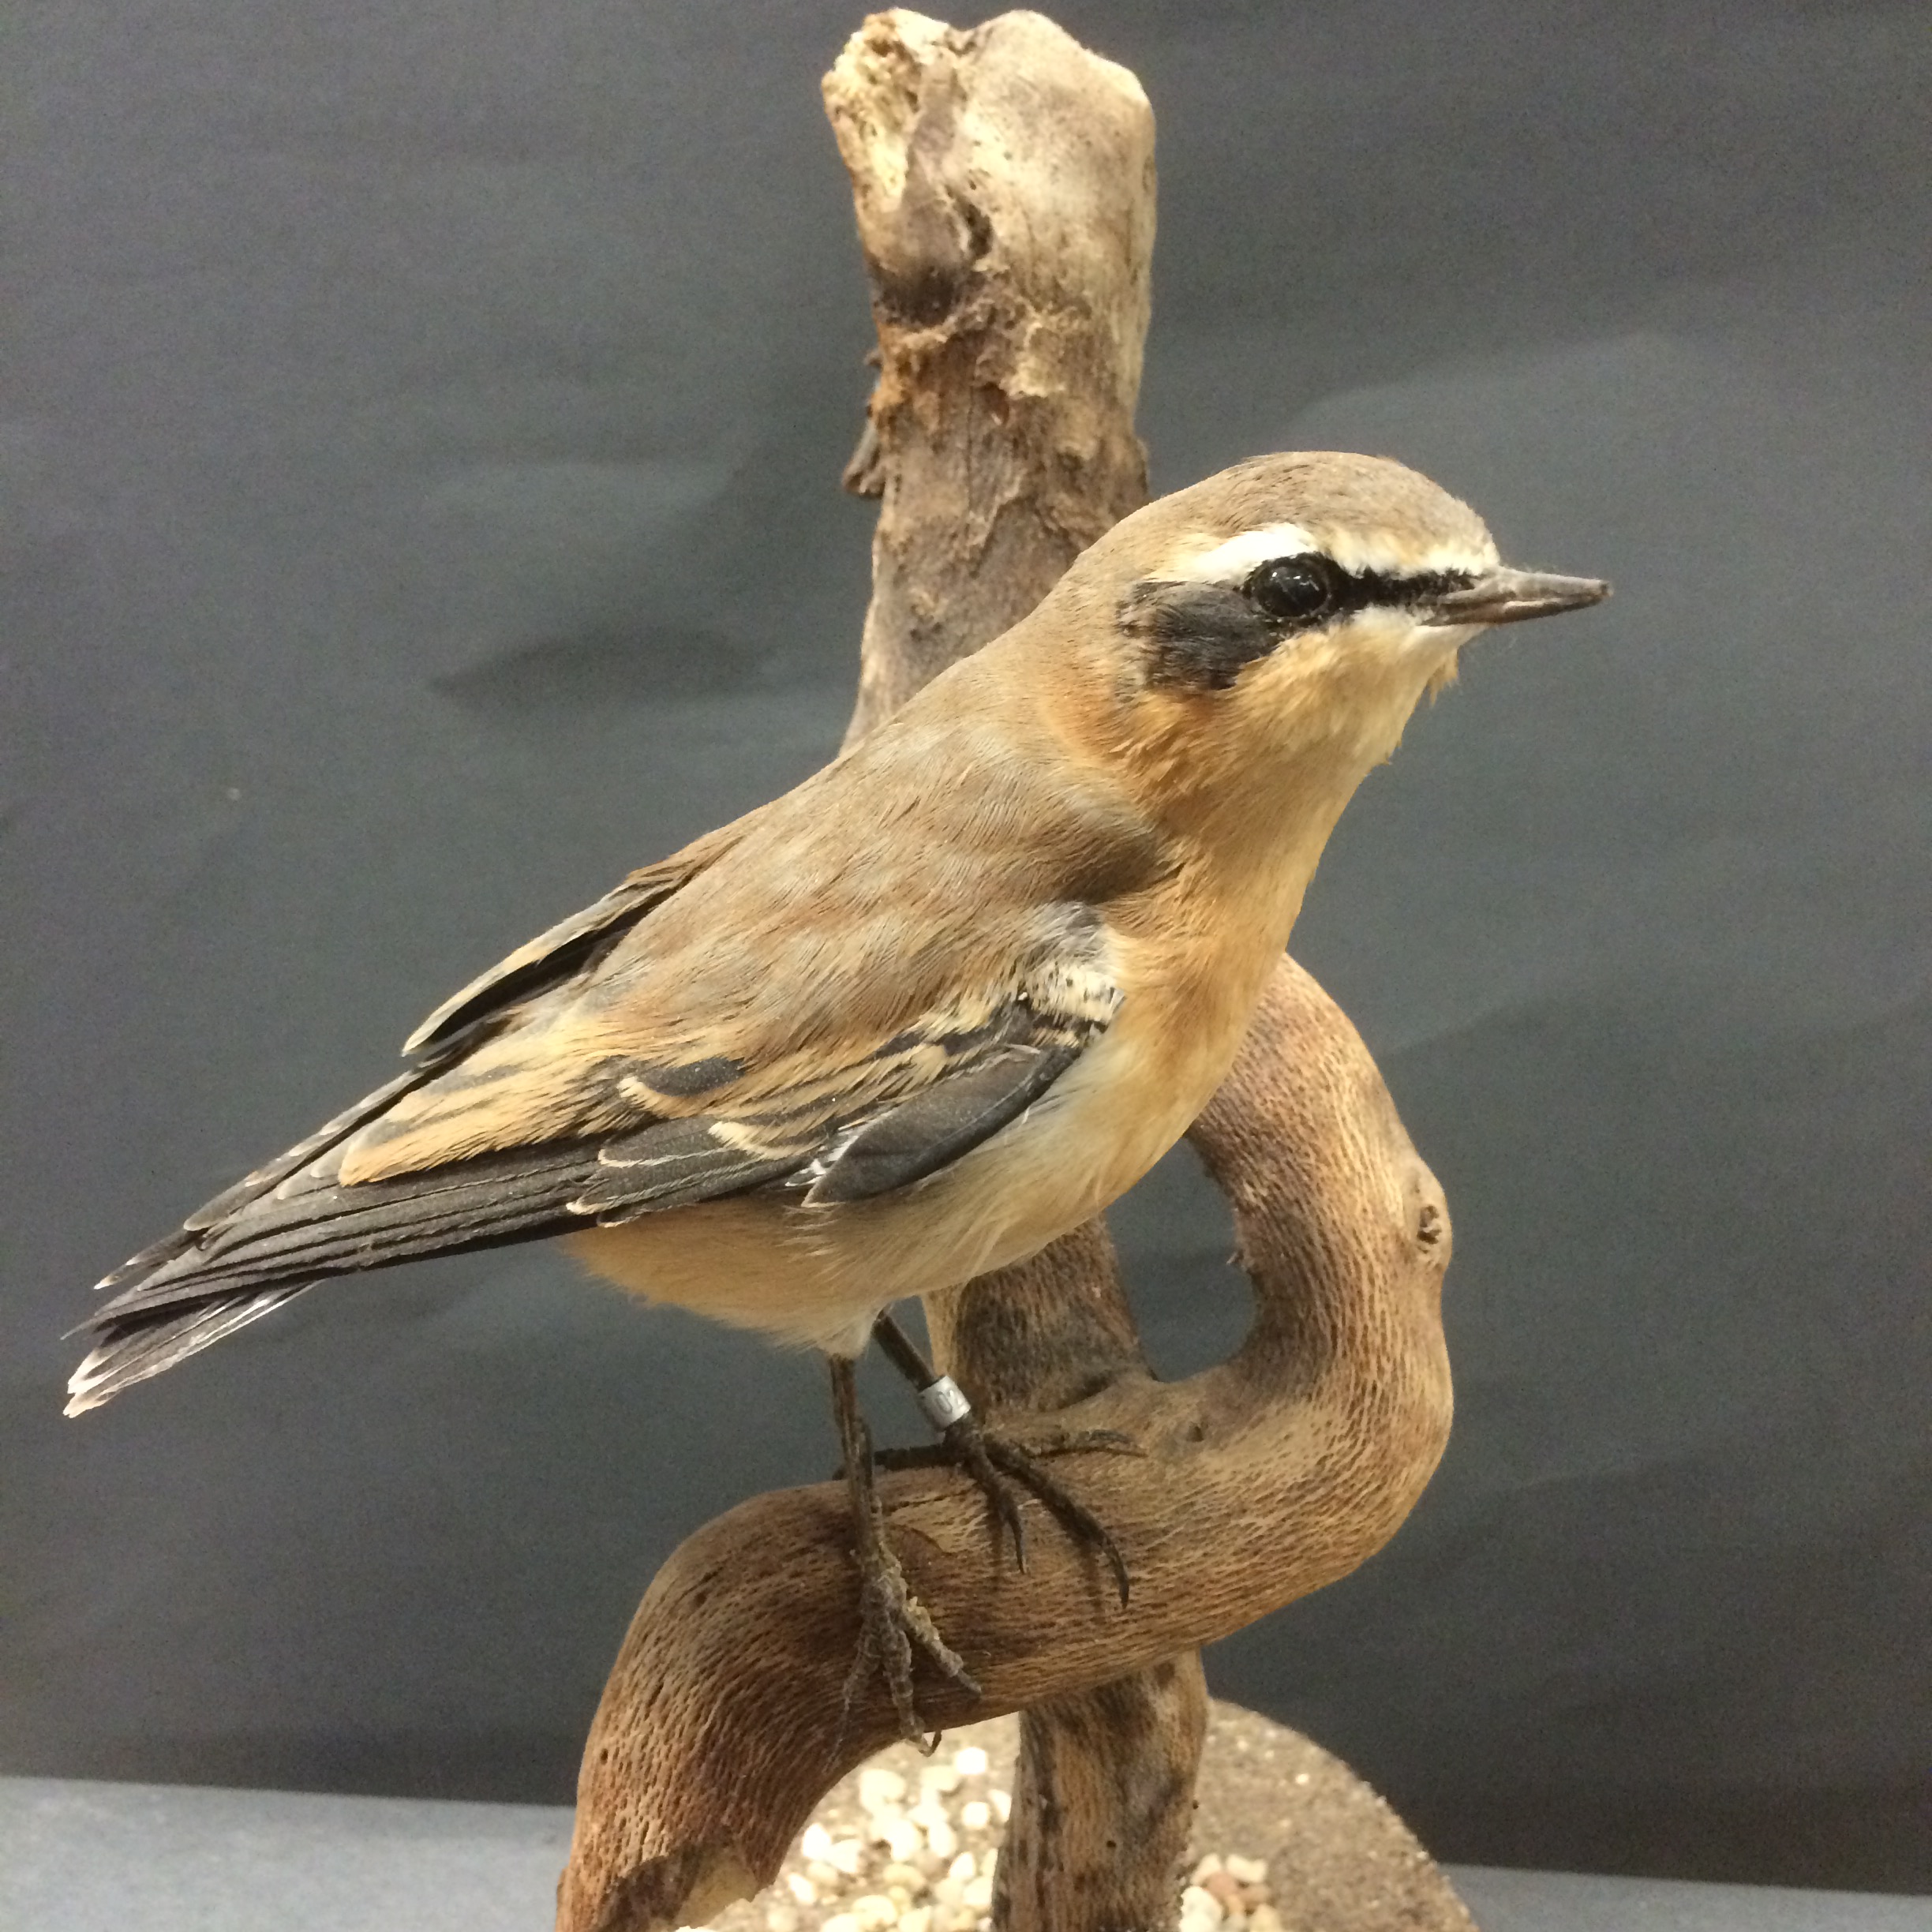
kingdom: Animalia
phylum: Chordata
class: Aves
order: Passeriformes
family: Muscicapidae
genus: Oenanthe
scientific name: Oenanthe oenanthe
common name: Northern wheatear
